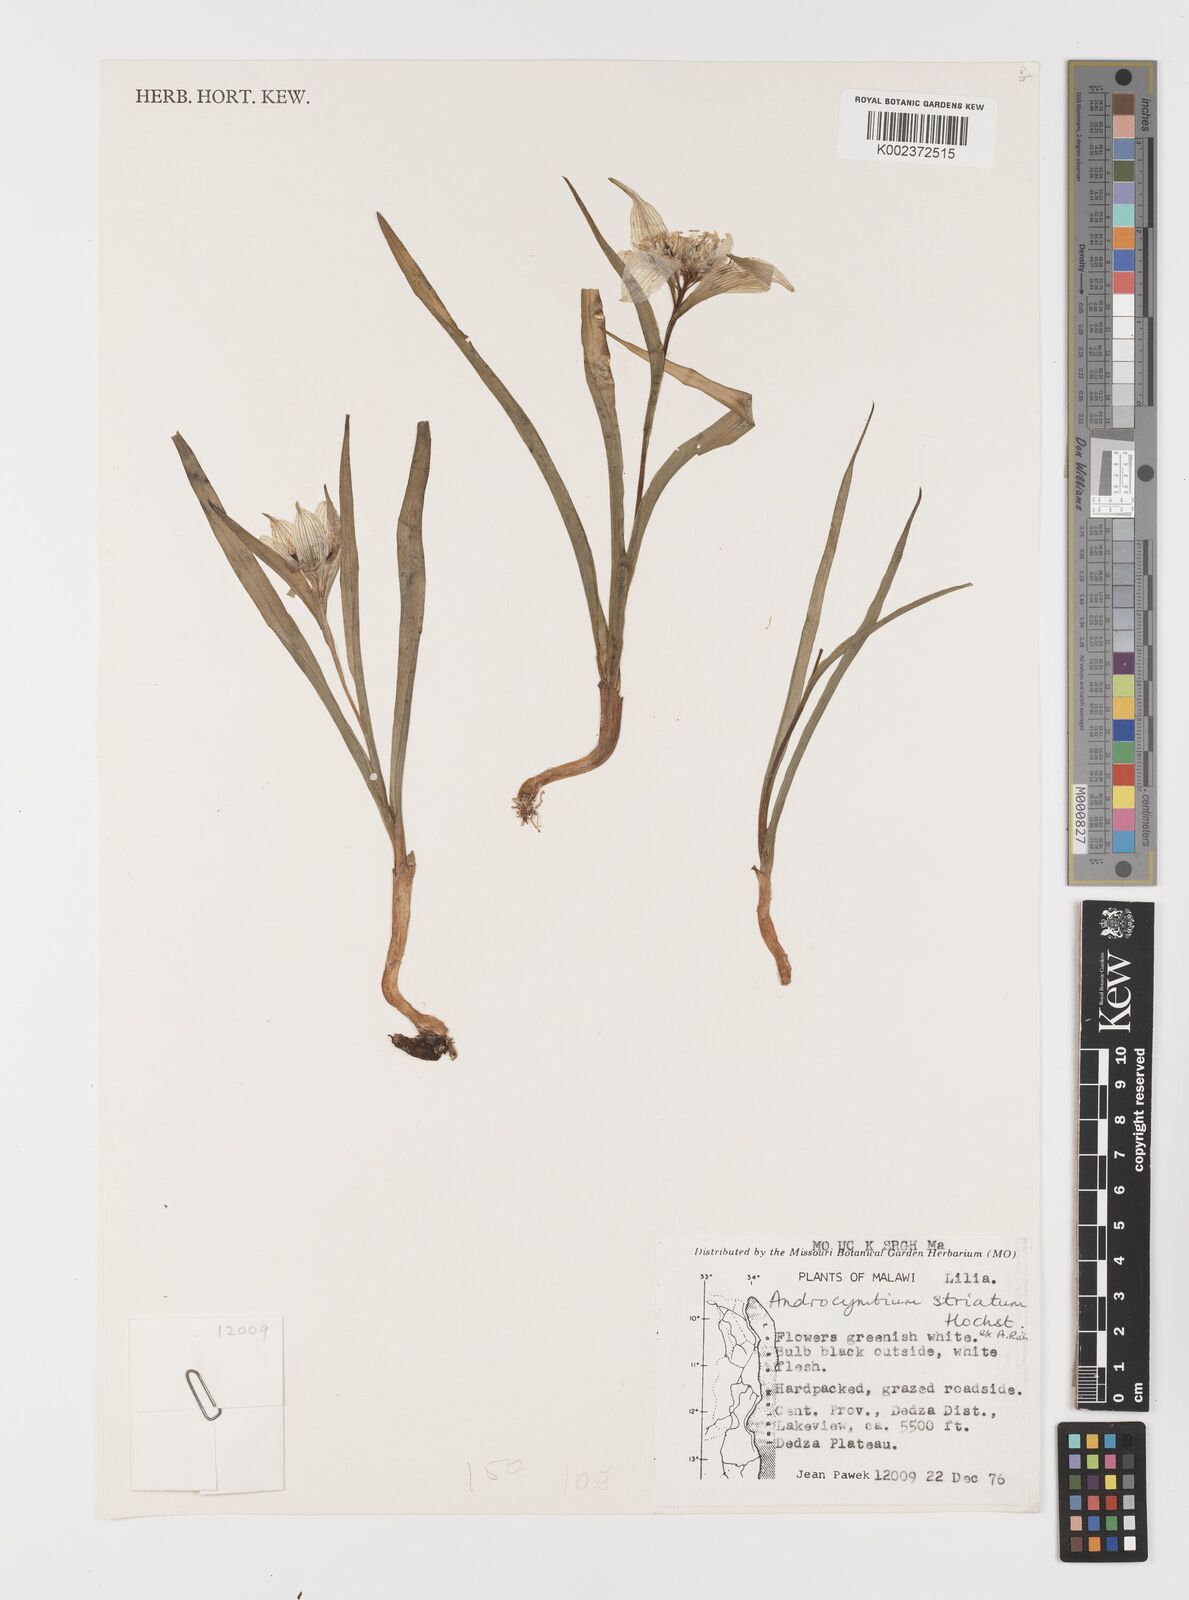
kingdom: Plantae
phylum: Tracheophyta
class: Liliopsida
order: Liliales
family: Colchicaceae
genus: Colchicum
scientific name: Colchicum melanthioides
